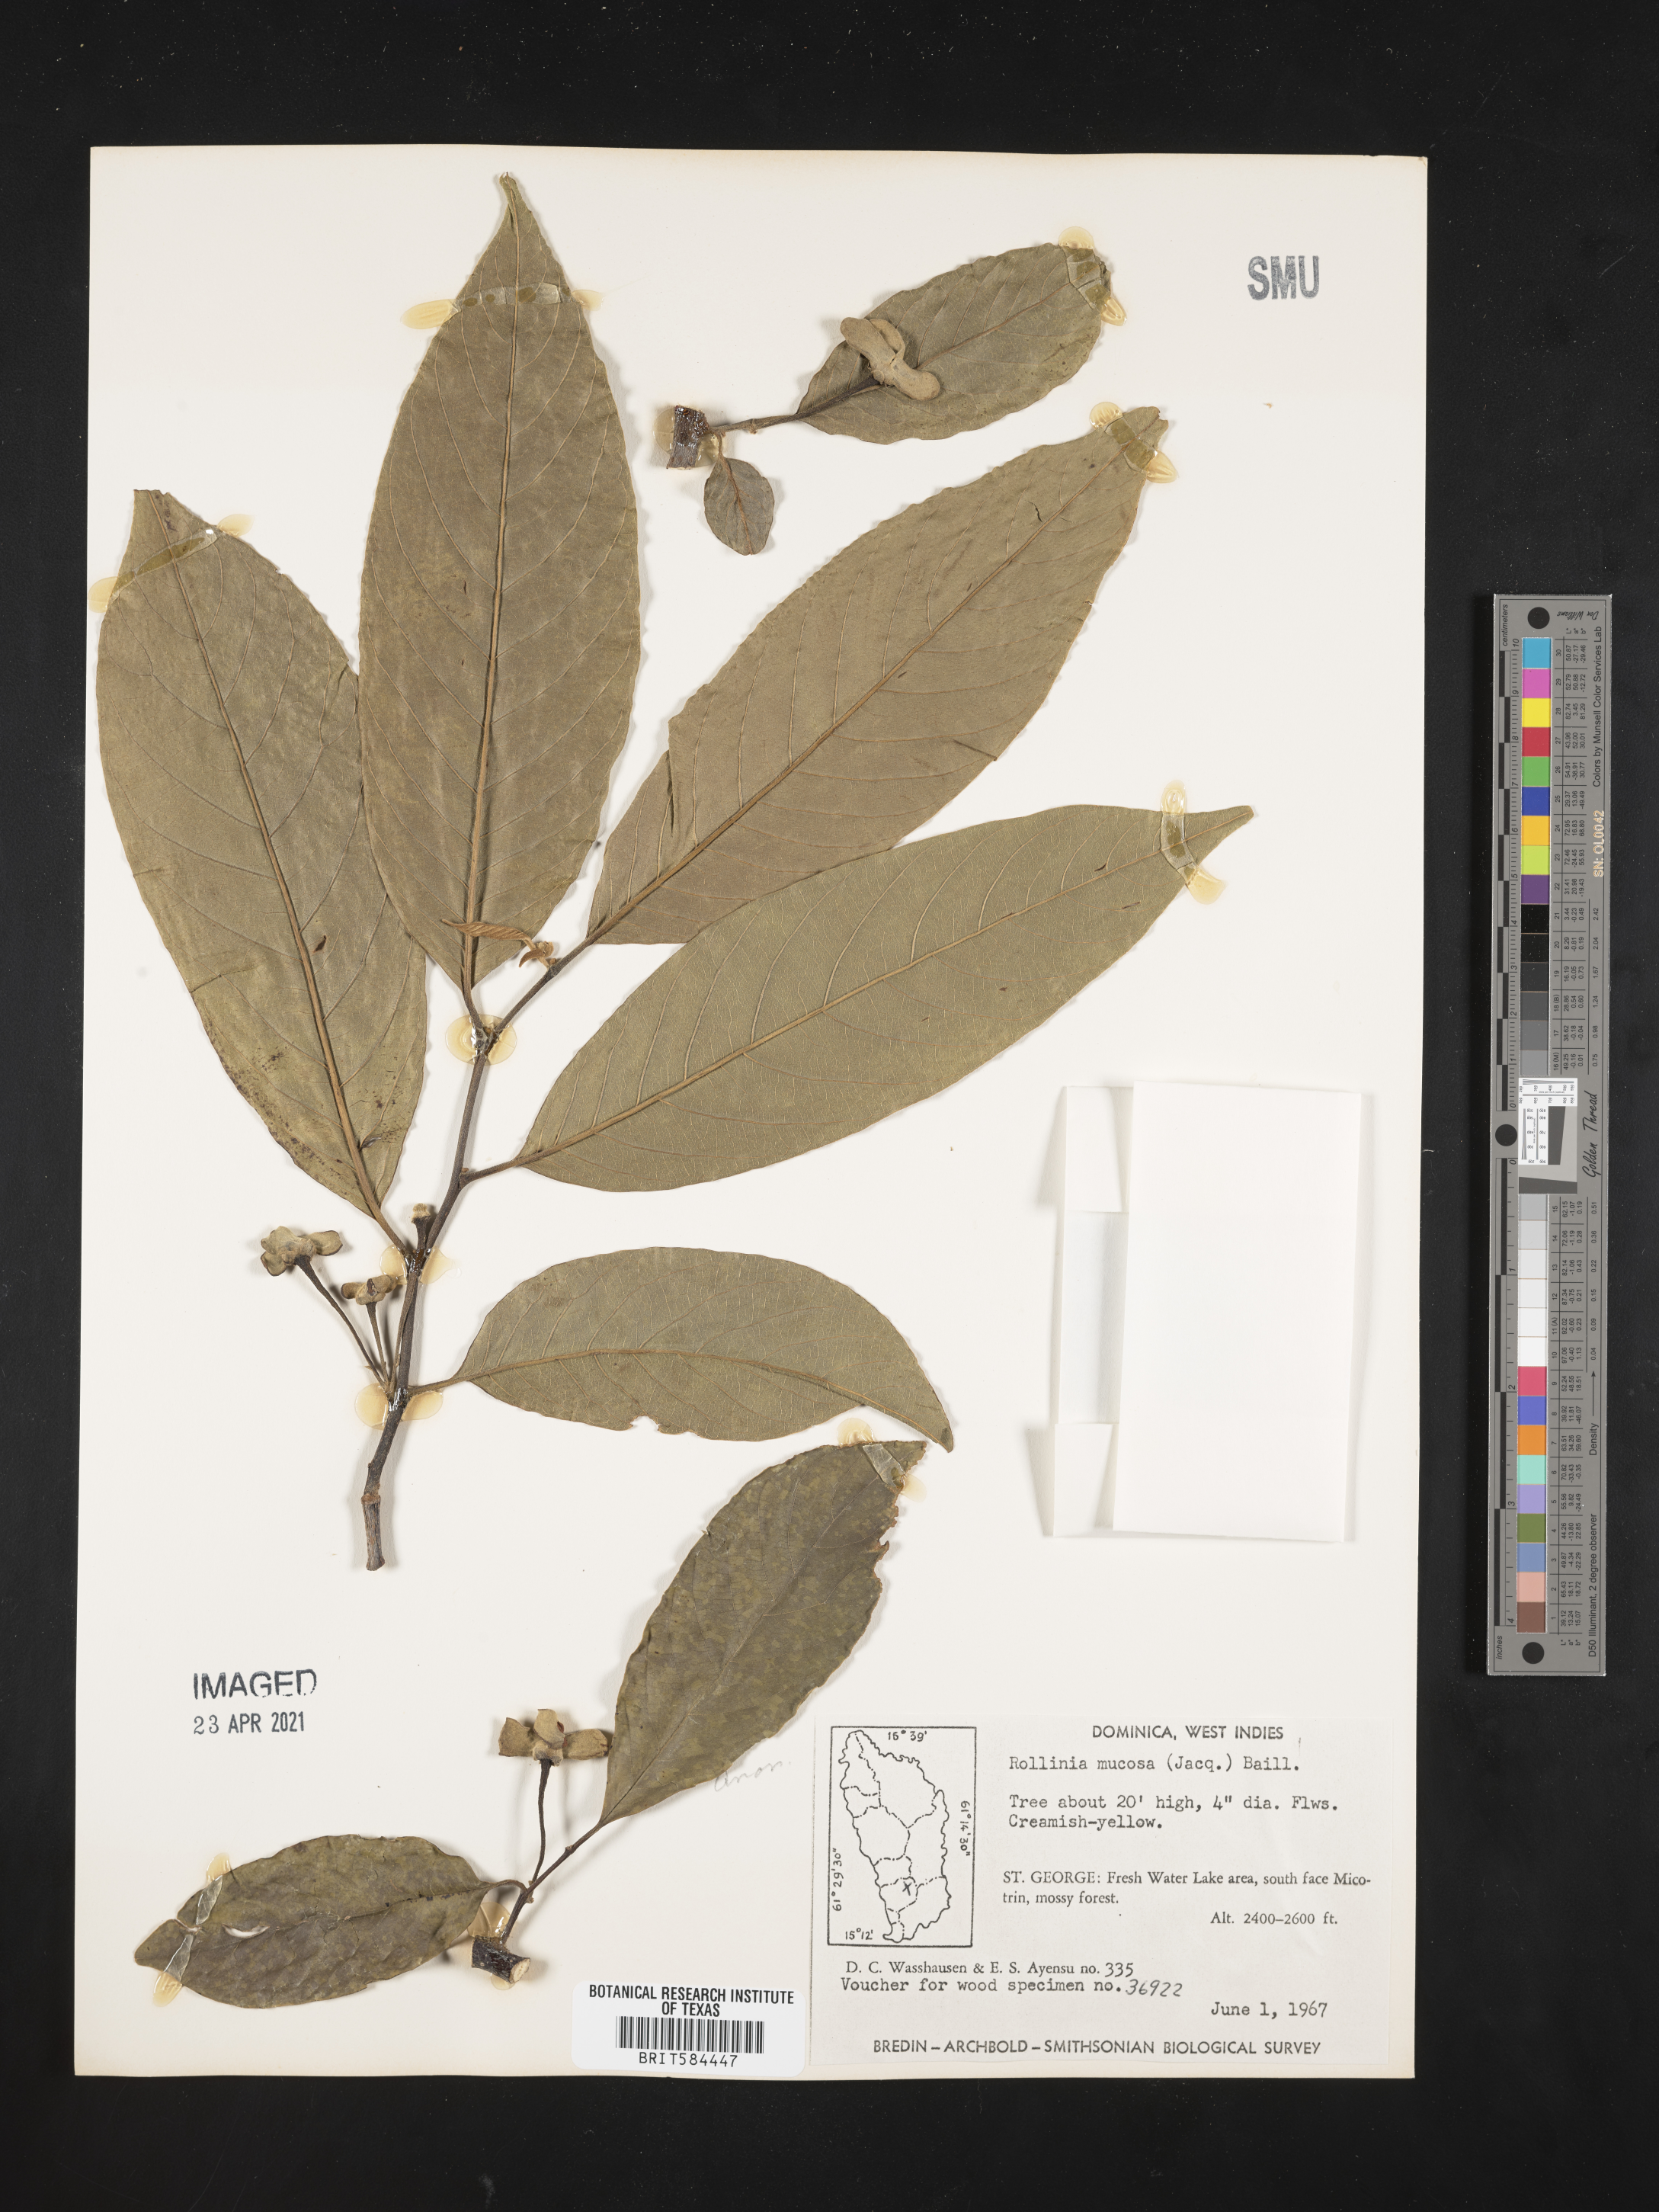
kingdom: Plantae
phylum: Tracheophyta
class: Magnoliopsida
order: Magnoliales
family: Annonaceae
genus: Annona
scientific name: Annona mucosa
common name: Sugar apple
